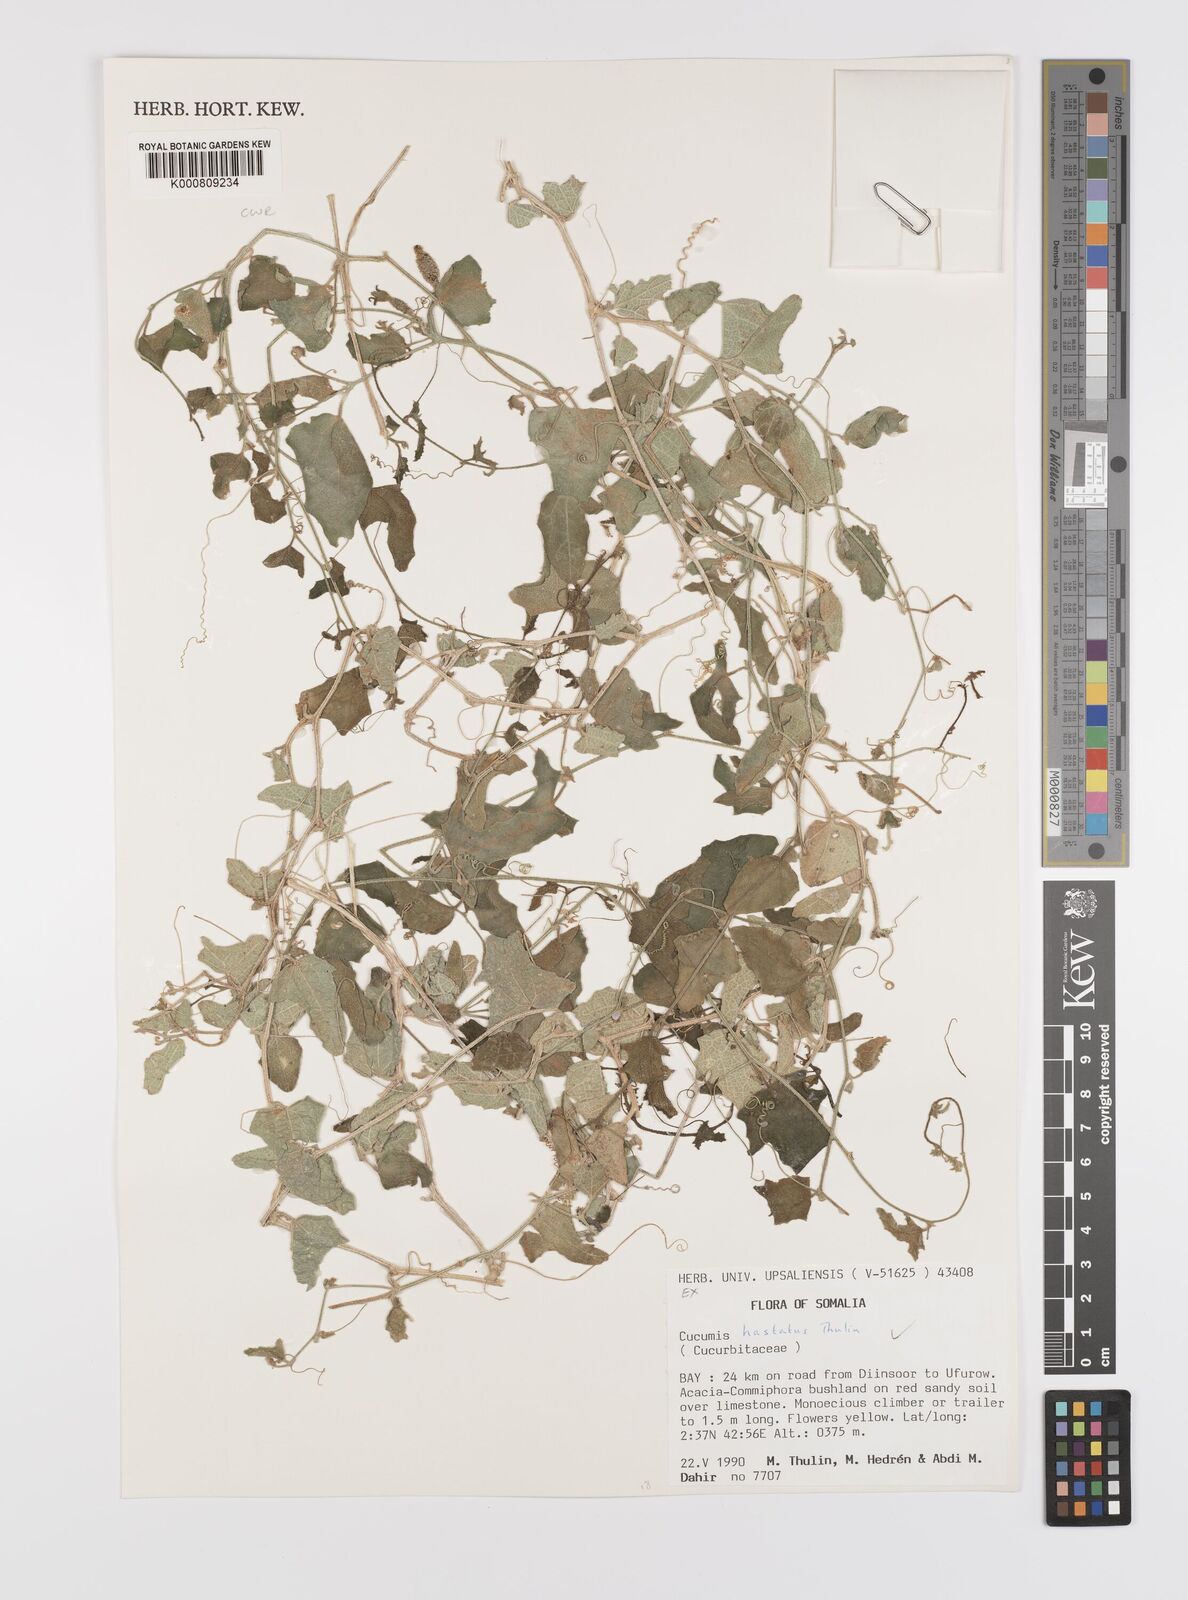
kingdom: Plantae
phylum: Tracheophyta
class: Magnoliopsida
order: Cucurbitales
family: Cucurbitaceae
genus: Cucumis
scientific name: Cucumis hastatus
